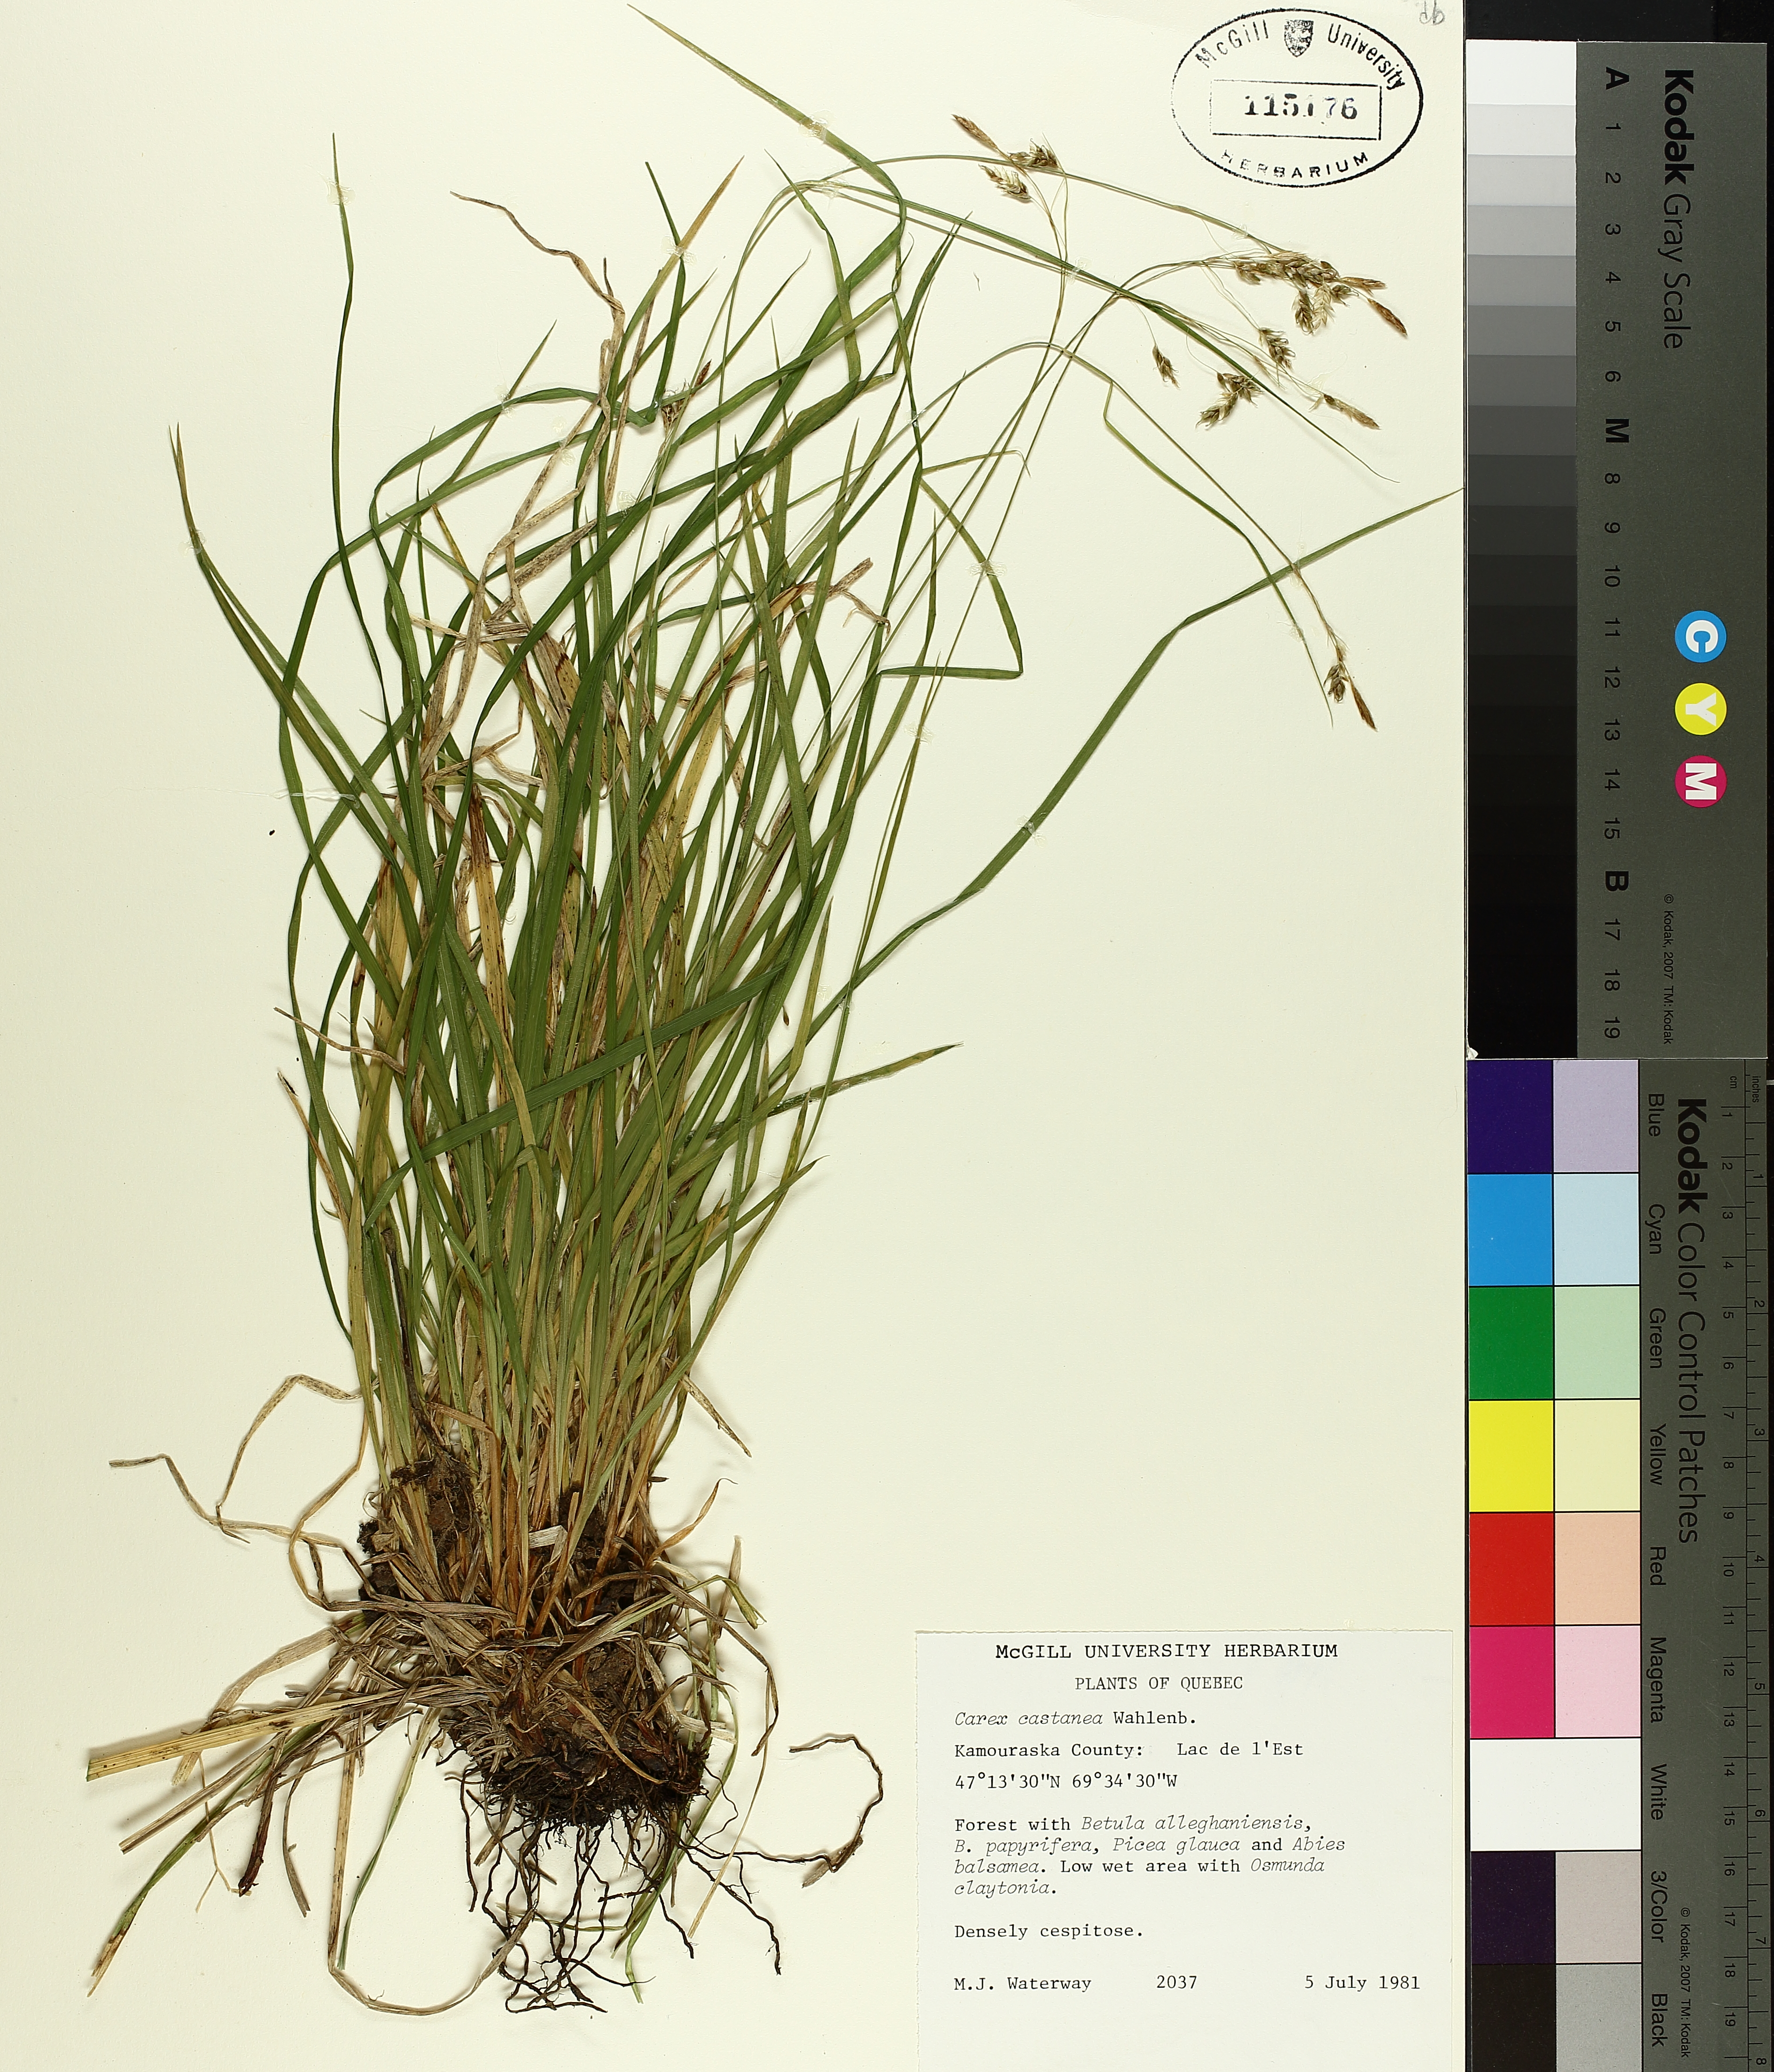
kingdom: Plantae
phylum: Tracheophyta
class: Liliopsida
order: Poales
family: Cyperaceae
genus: Carex
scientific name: Carex castanea
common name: Chestnut sedge
